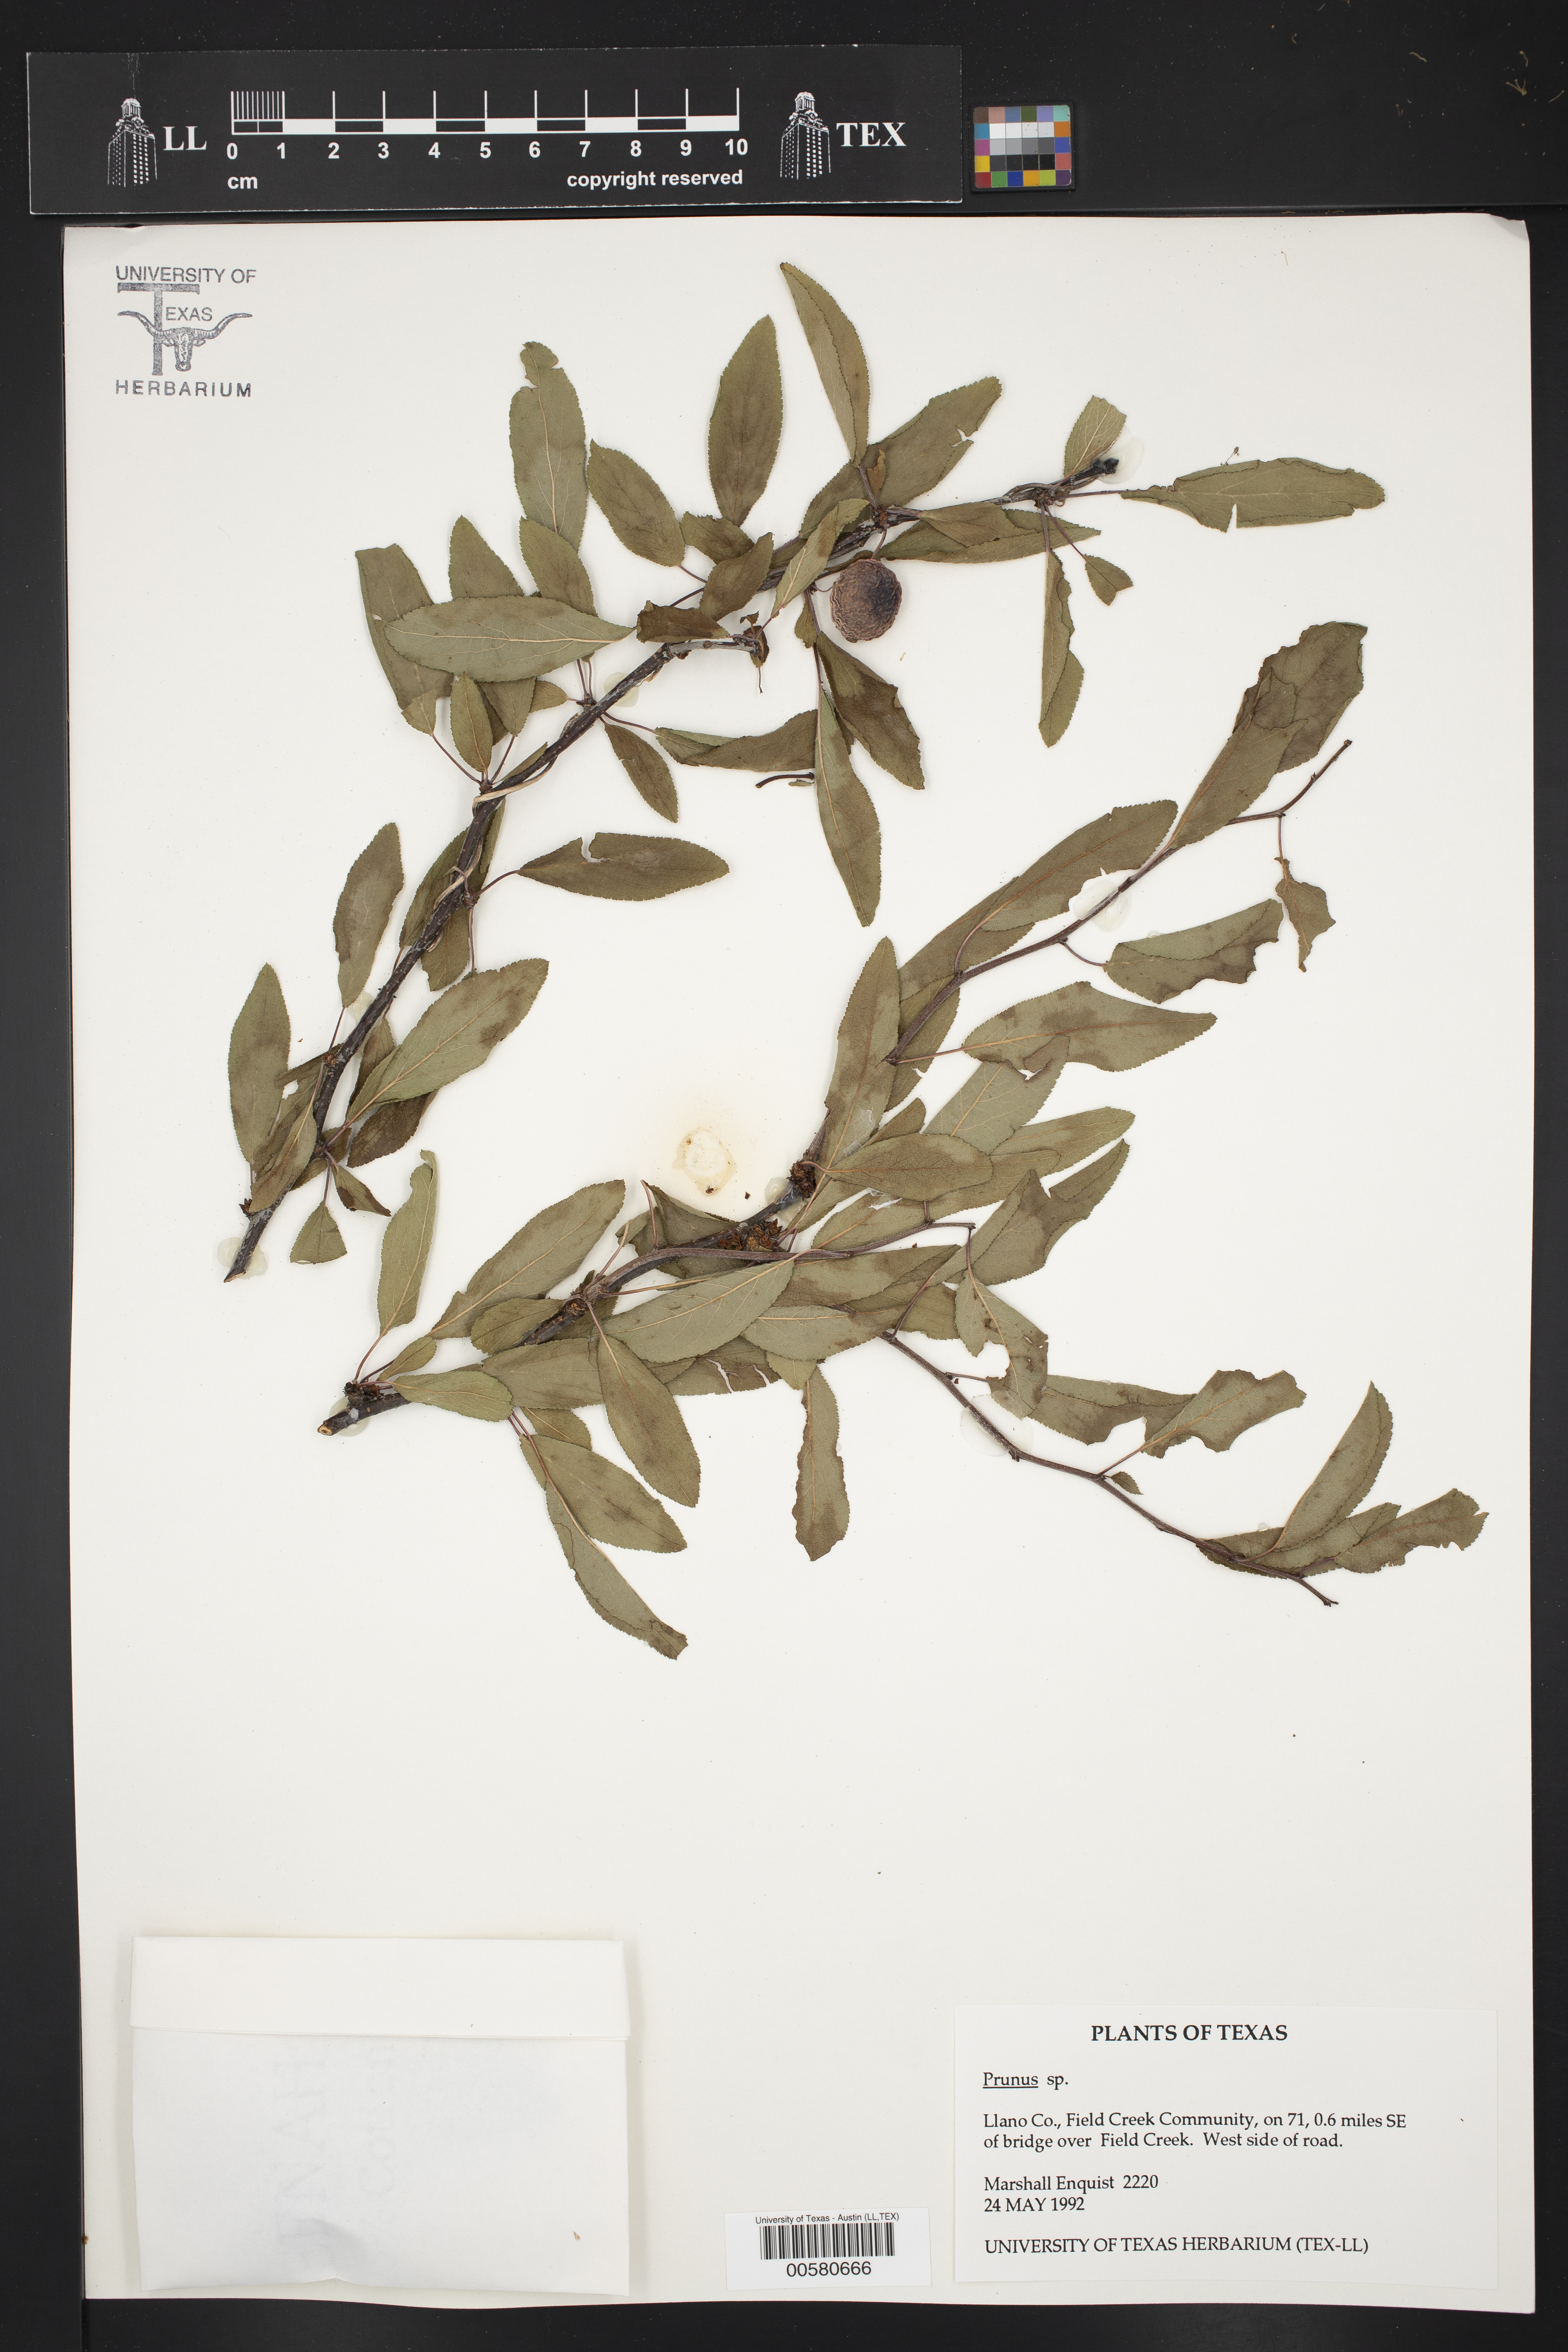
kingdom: Plantae
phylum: Tracheophyta
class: Magnoliopsida
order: Rosales
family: Rosaceae
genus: Prunus
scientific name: Prunus
